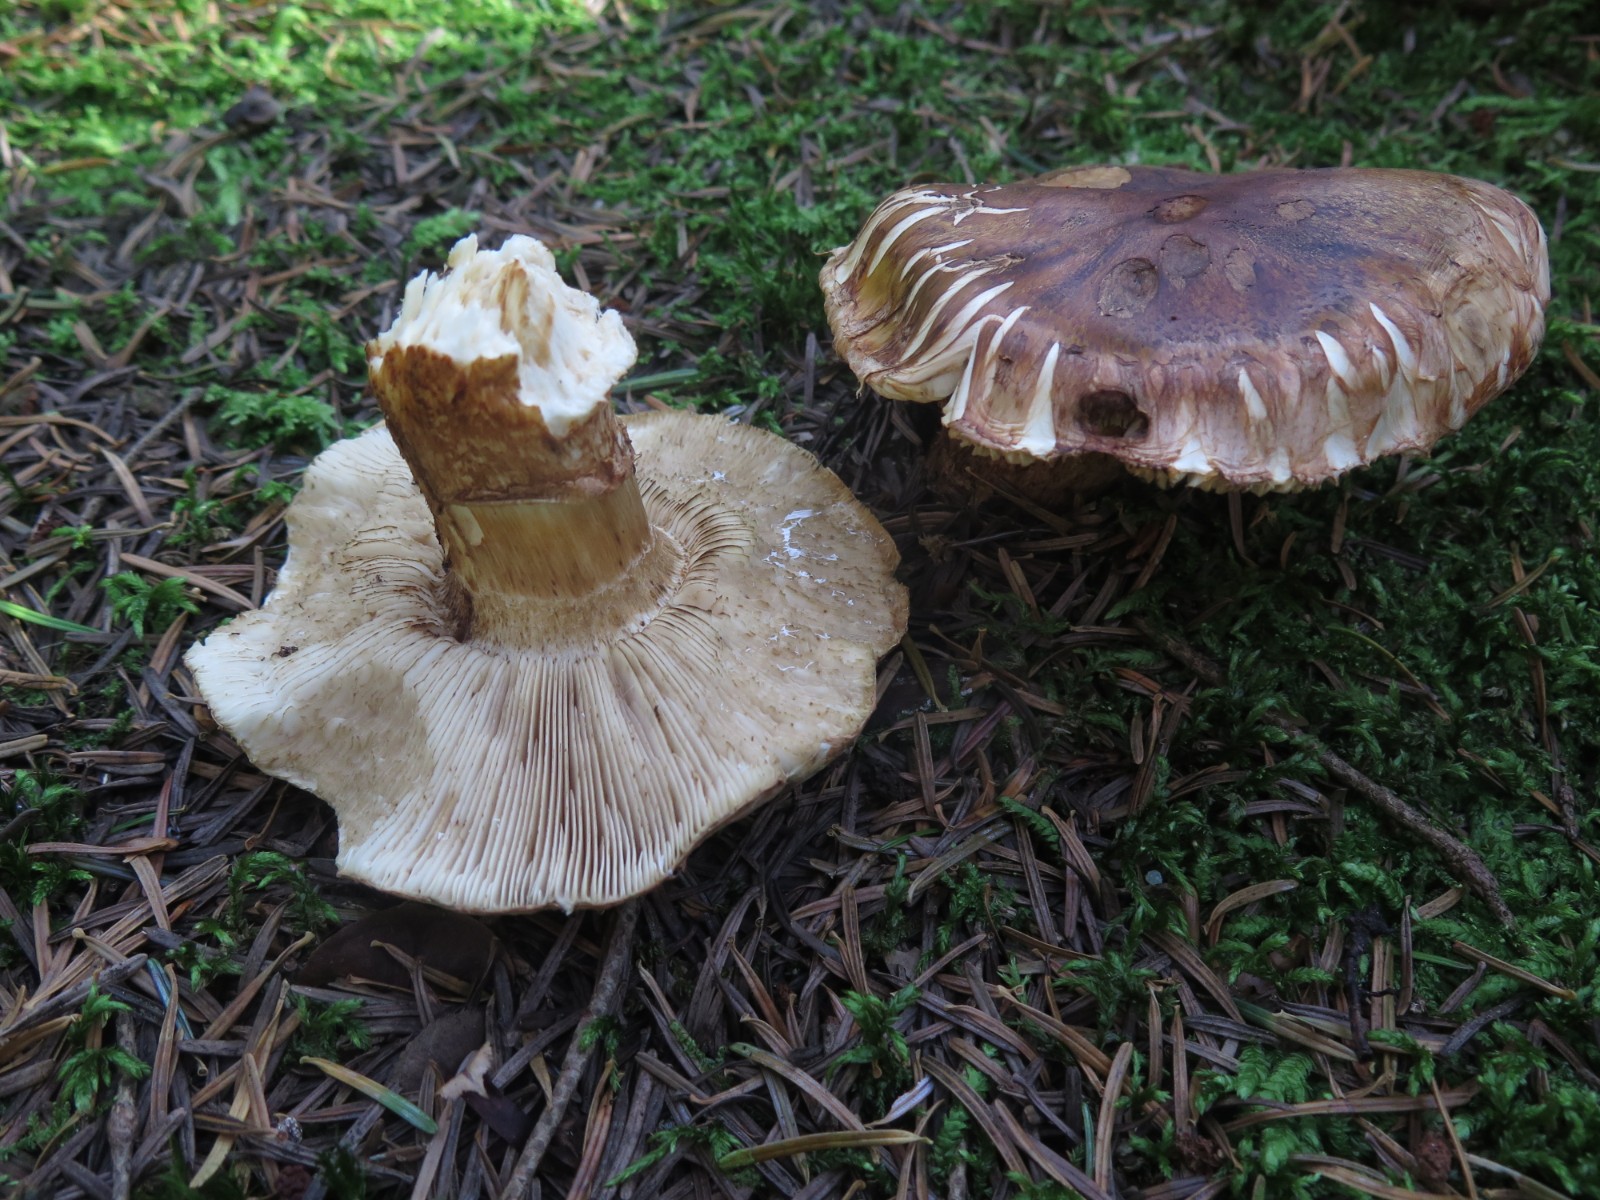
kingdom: Fungi
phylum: Basidiomycota
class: Agaricomycetes
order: Agaricales
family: Tricholomataceae
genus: Tricholoma
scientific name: Tricholoma focale
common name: halsbånd-ridderhat
